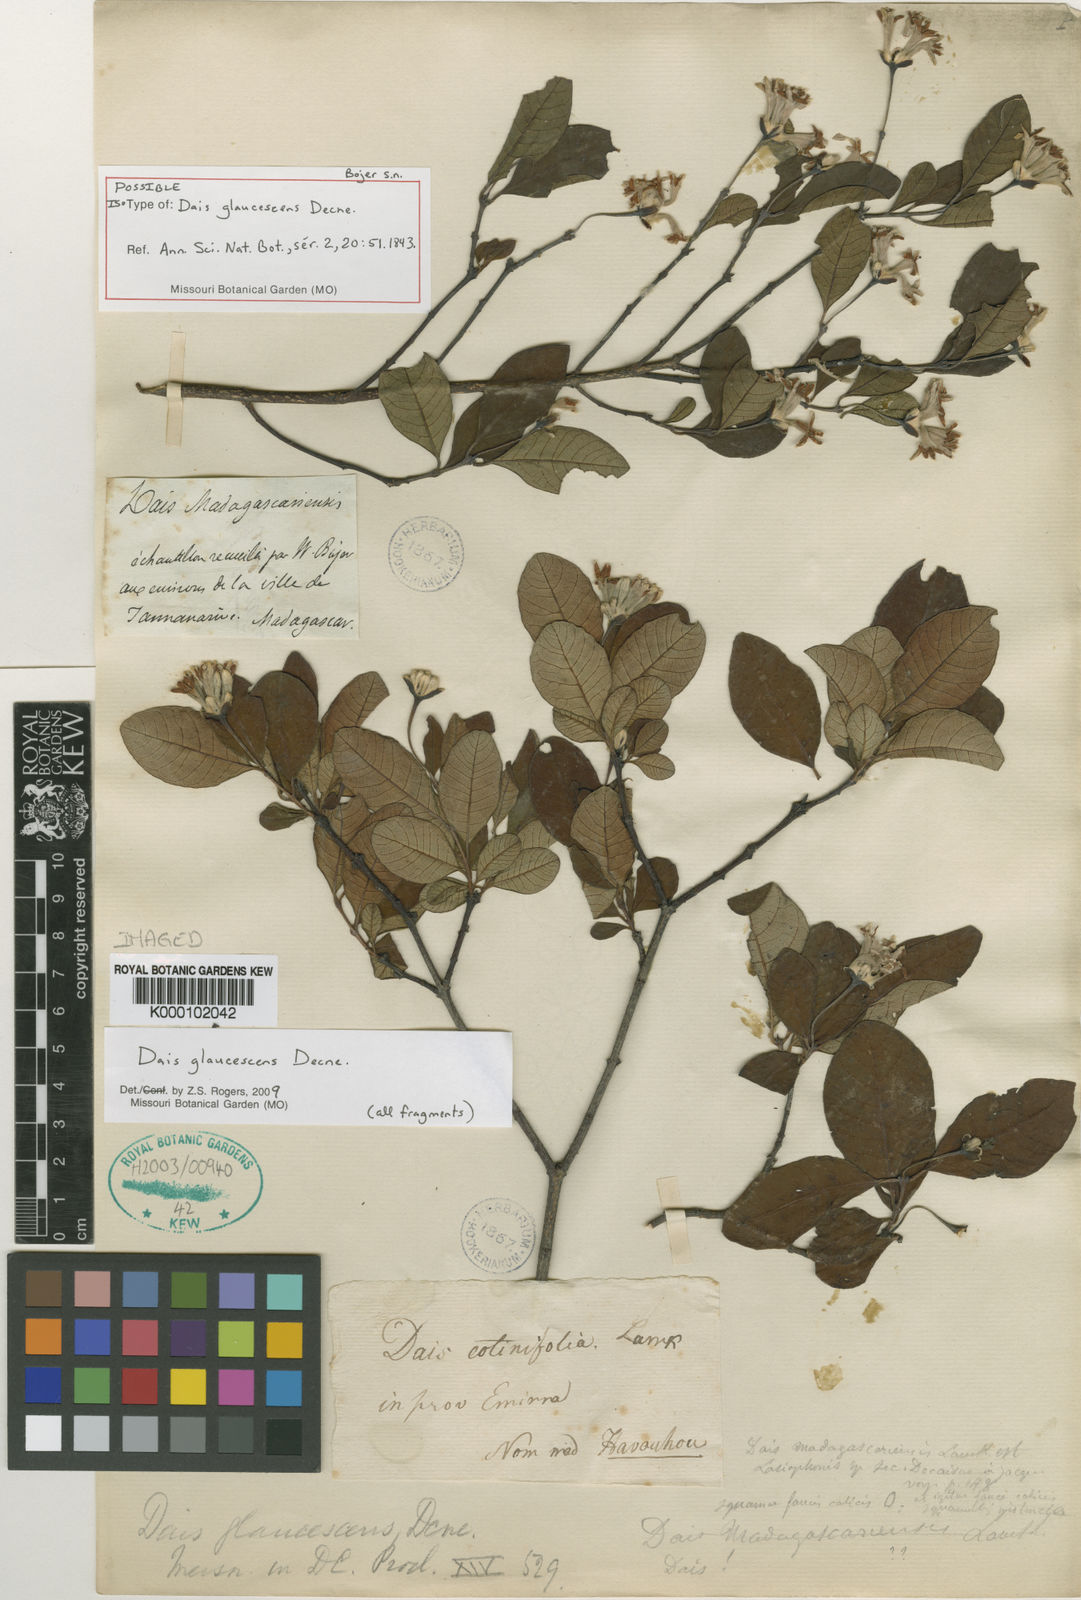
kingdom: Plantae
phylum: Tracheophyta
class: Magnoliopsida
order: Malvales
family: Thymelaeaceae
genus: Dais
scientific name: Dais glaucescens
